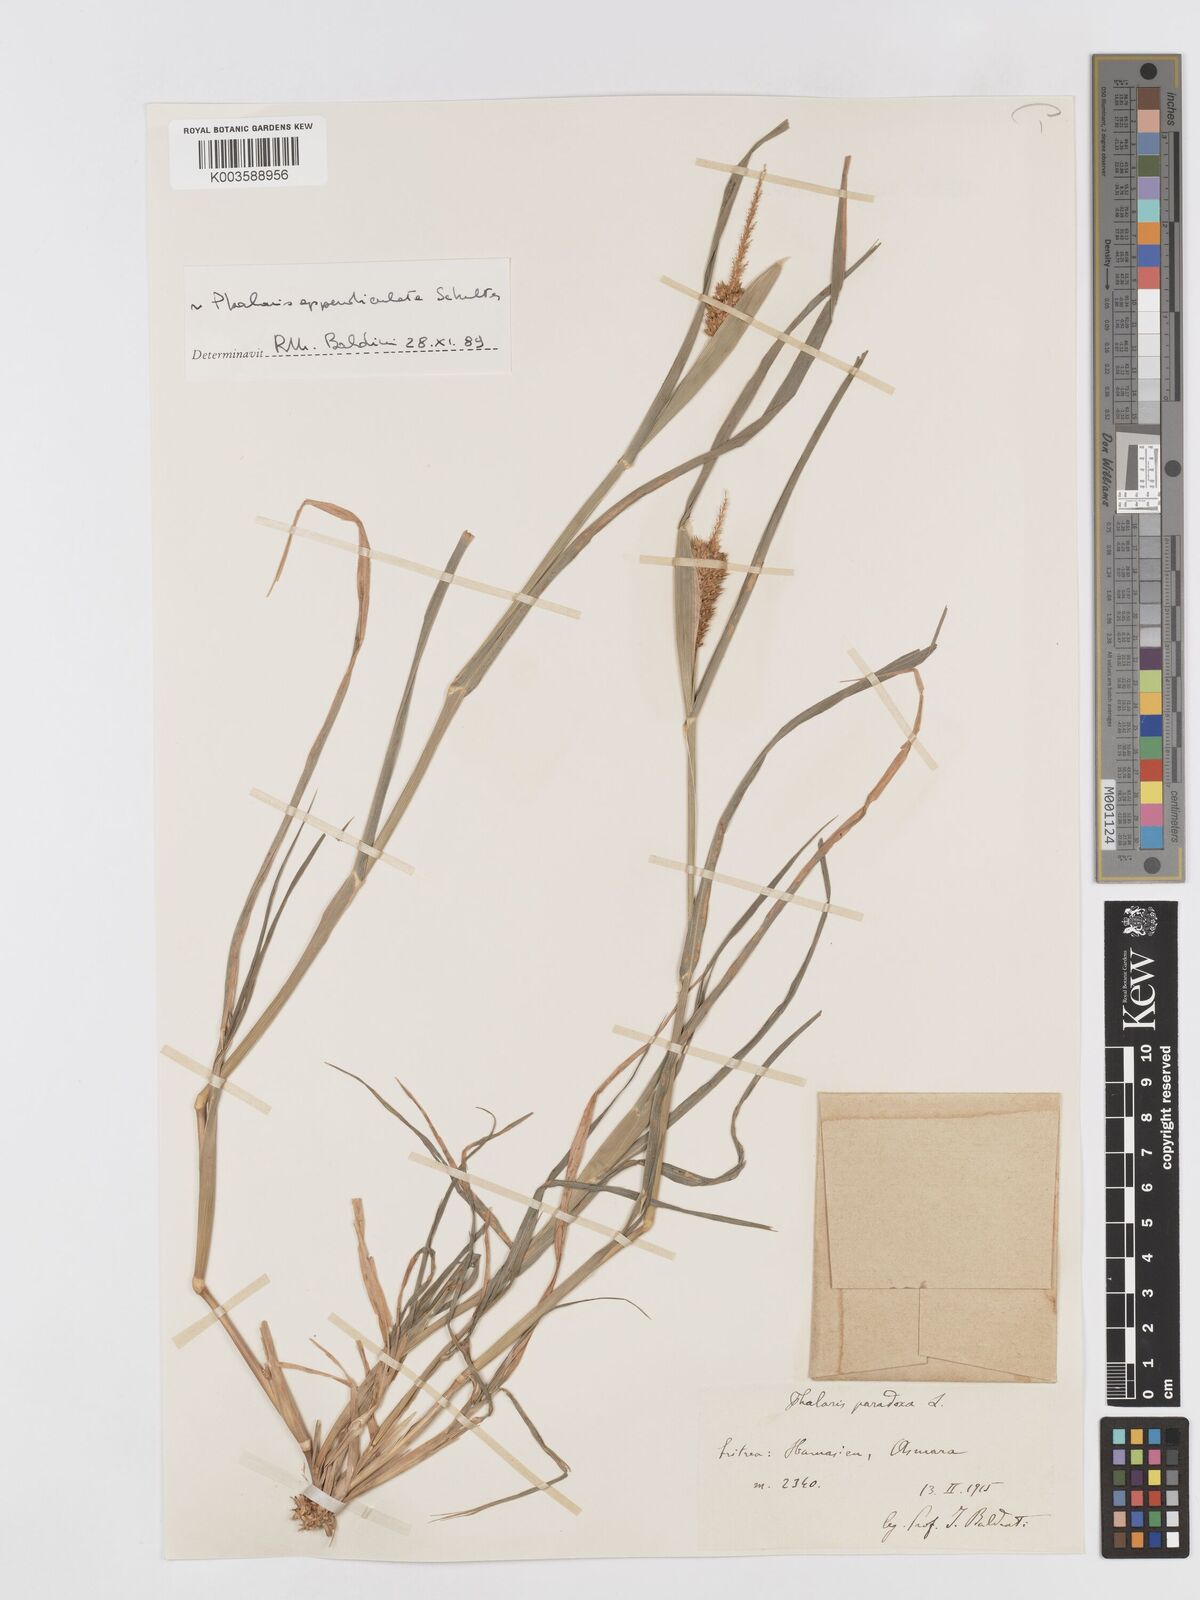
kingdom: Plantae
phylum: Tracheophyta
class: Liliopsida
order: Poales
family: Poaceae
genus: Phalaris
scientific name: Phalaris paradoxa
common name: Awned canary-grass
